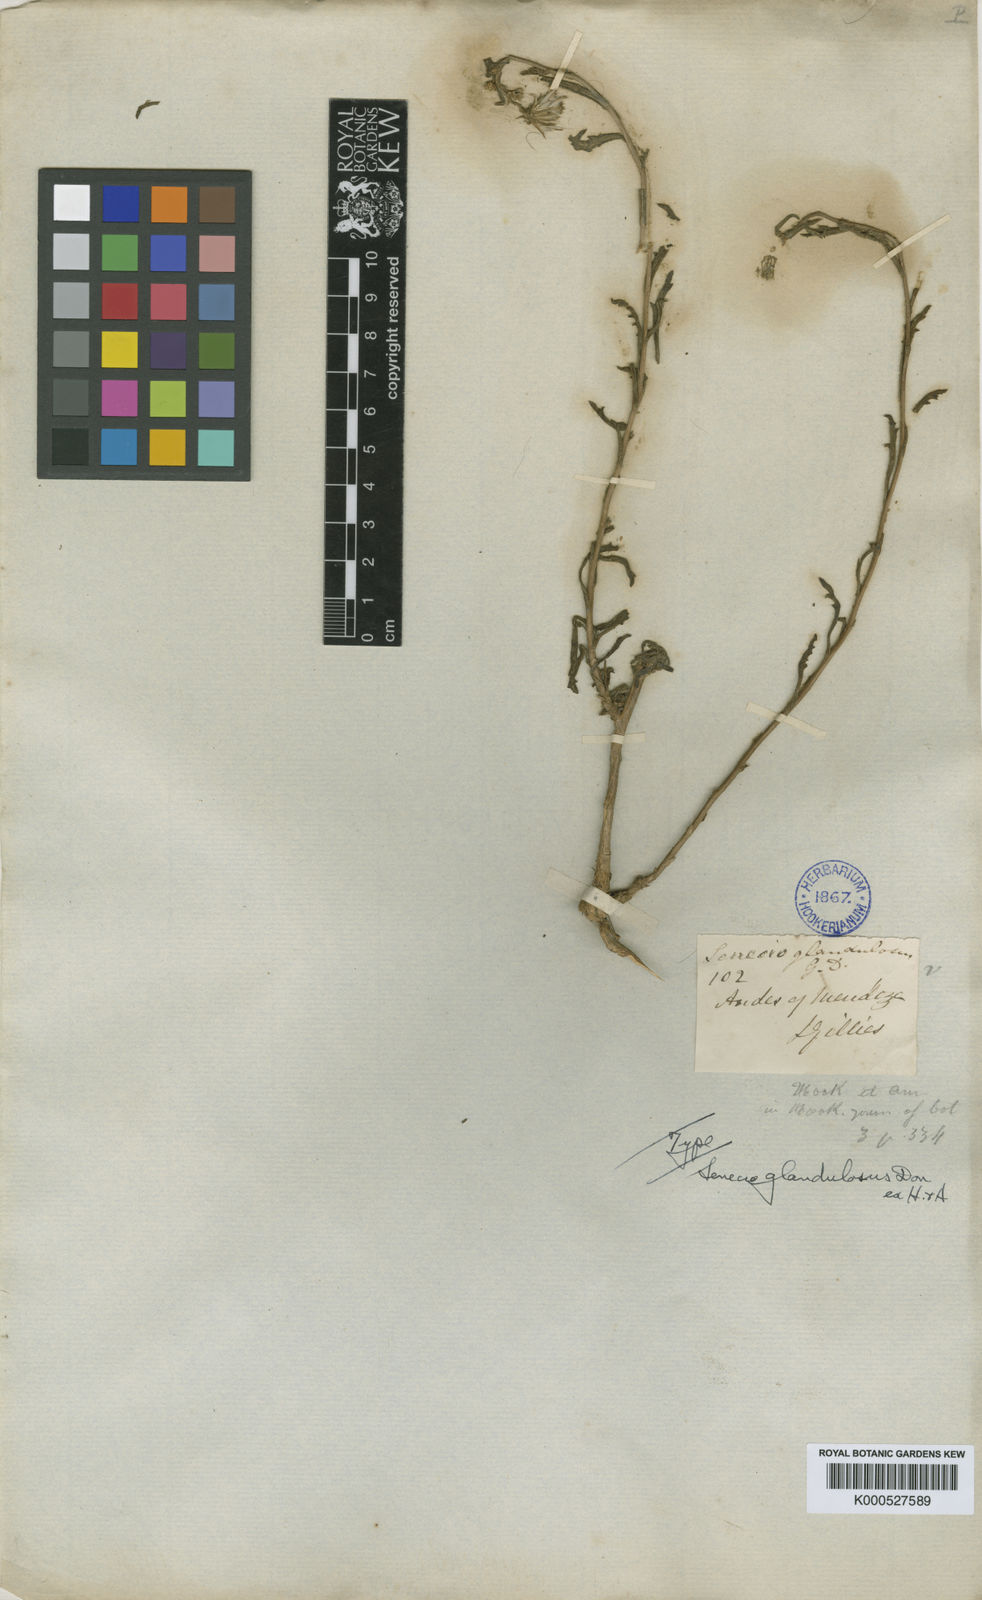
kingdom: Plantae
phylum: Tracheophyta
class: Magnoliopsida
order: Asterales
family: Asteraceae
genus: Senecio
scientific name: Senecio glandulosus
